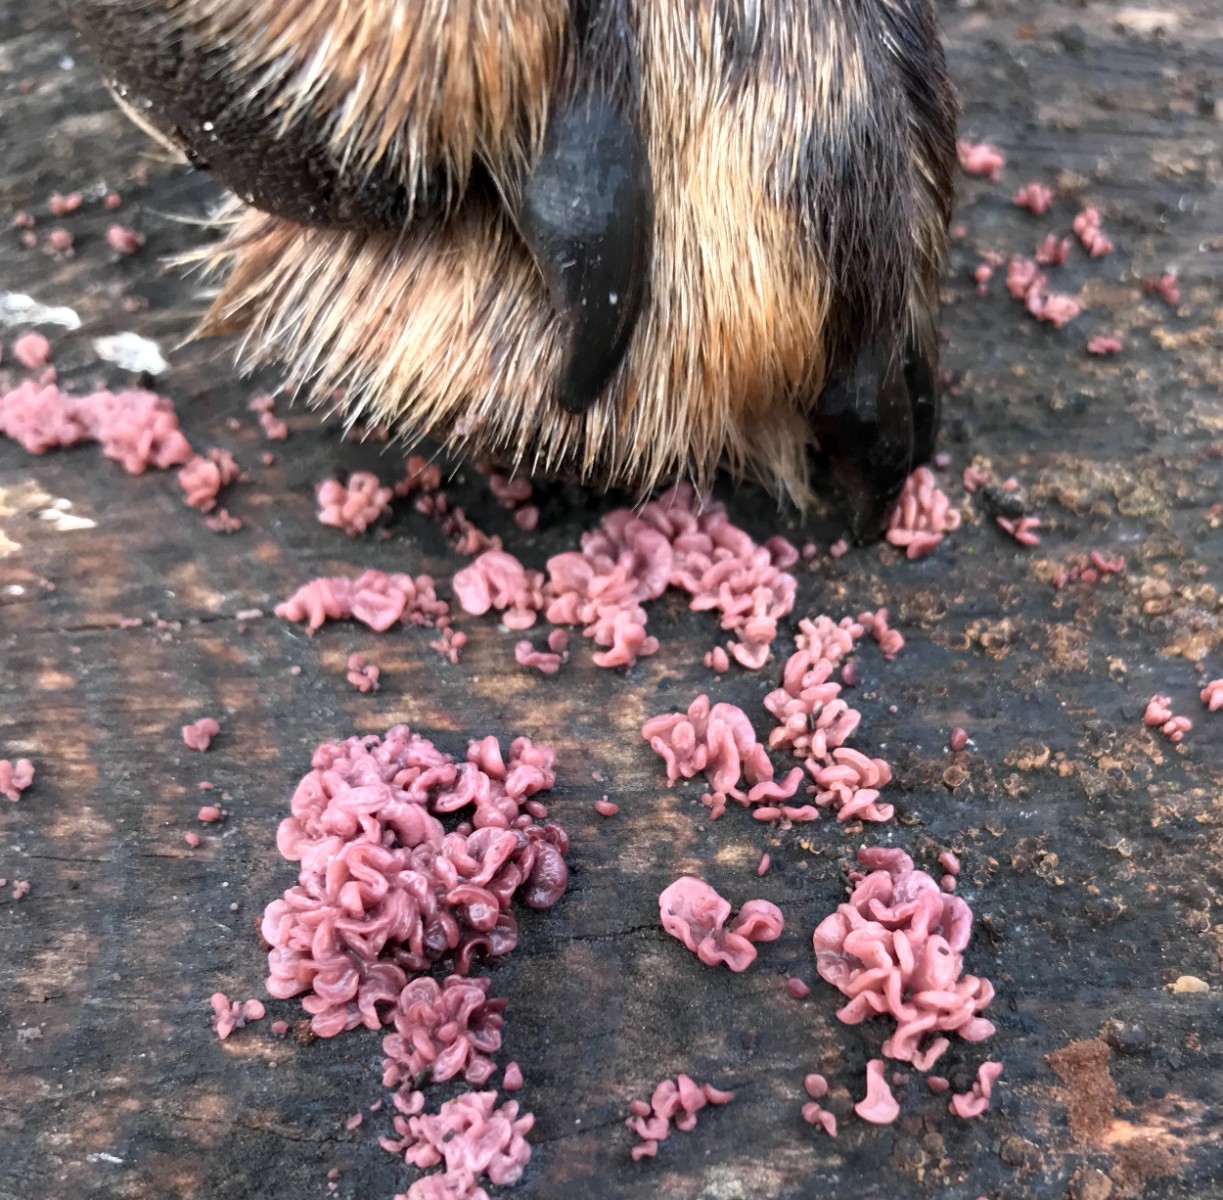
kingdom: Fungi
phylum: Ascomycota
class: Leotiomycetes
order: Helotiales
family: Gelatinodiscaceae
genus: Ascocoryne
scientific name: Ascocoryne sarcoides
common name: rødlilla sejskive
